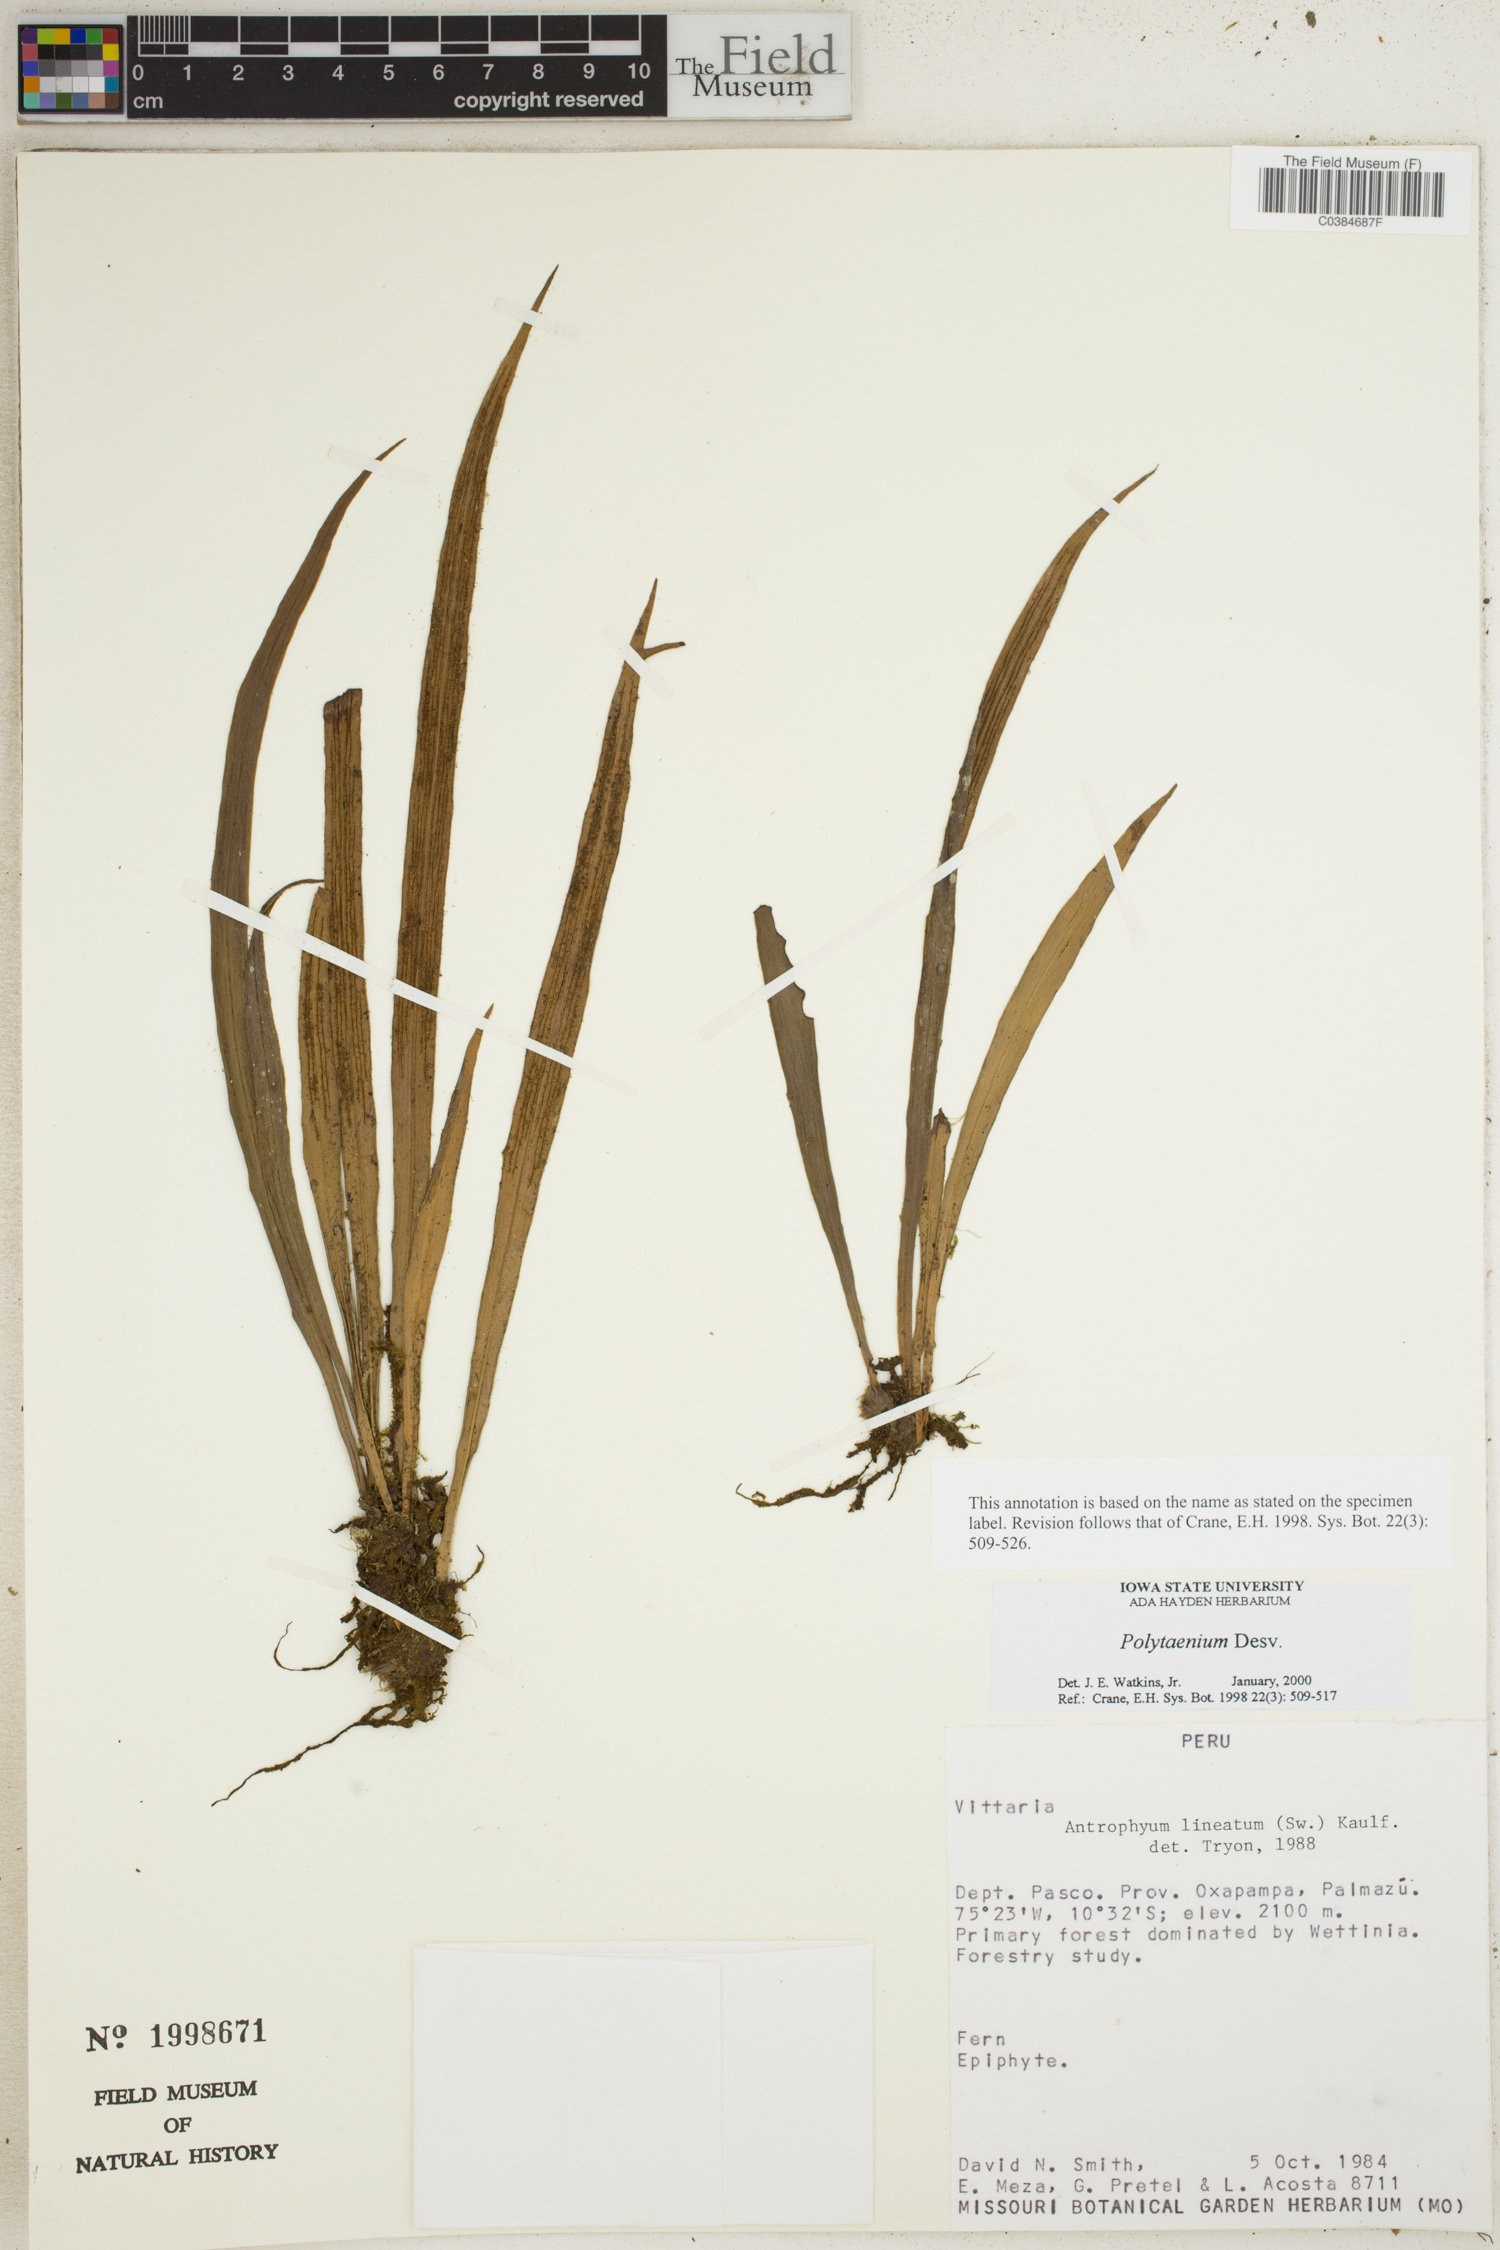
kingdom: Plantae
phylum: Tracheophyta
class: Polypodiopsida
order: Polypodiales
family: Pteridaceae
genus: Polytaenium
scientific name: Polytaenium
